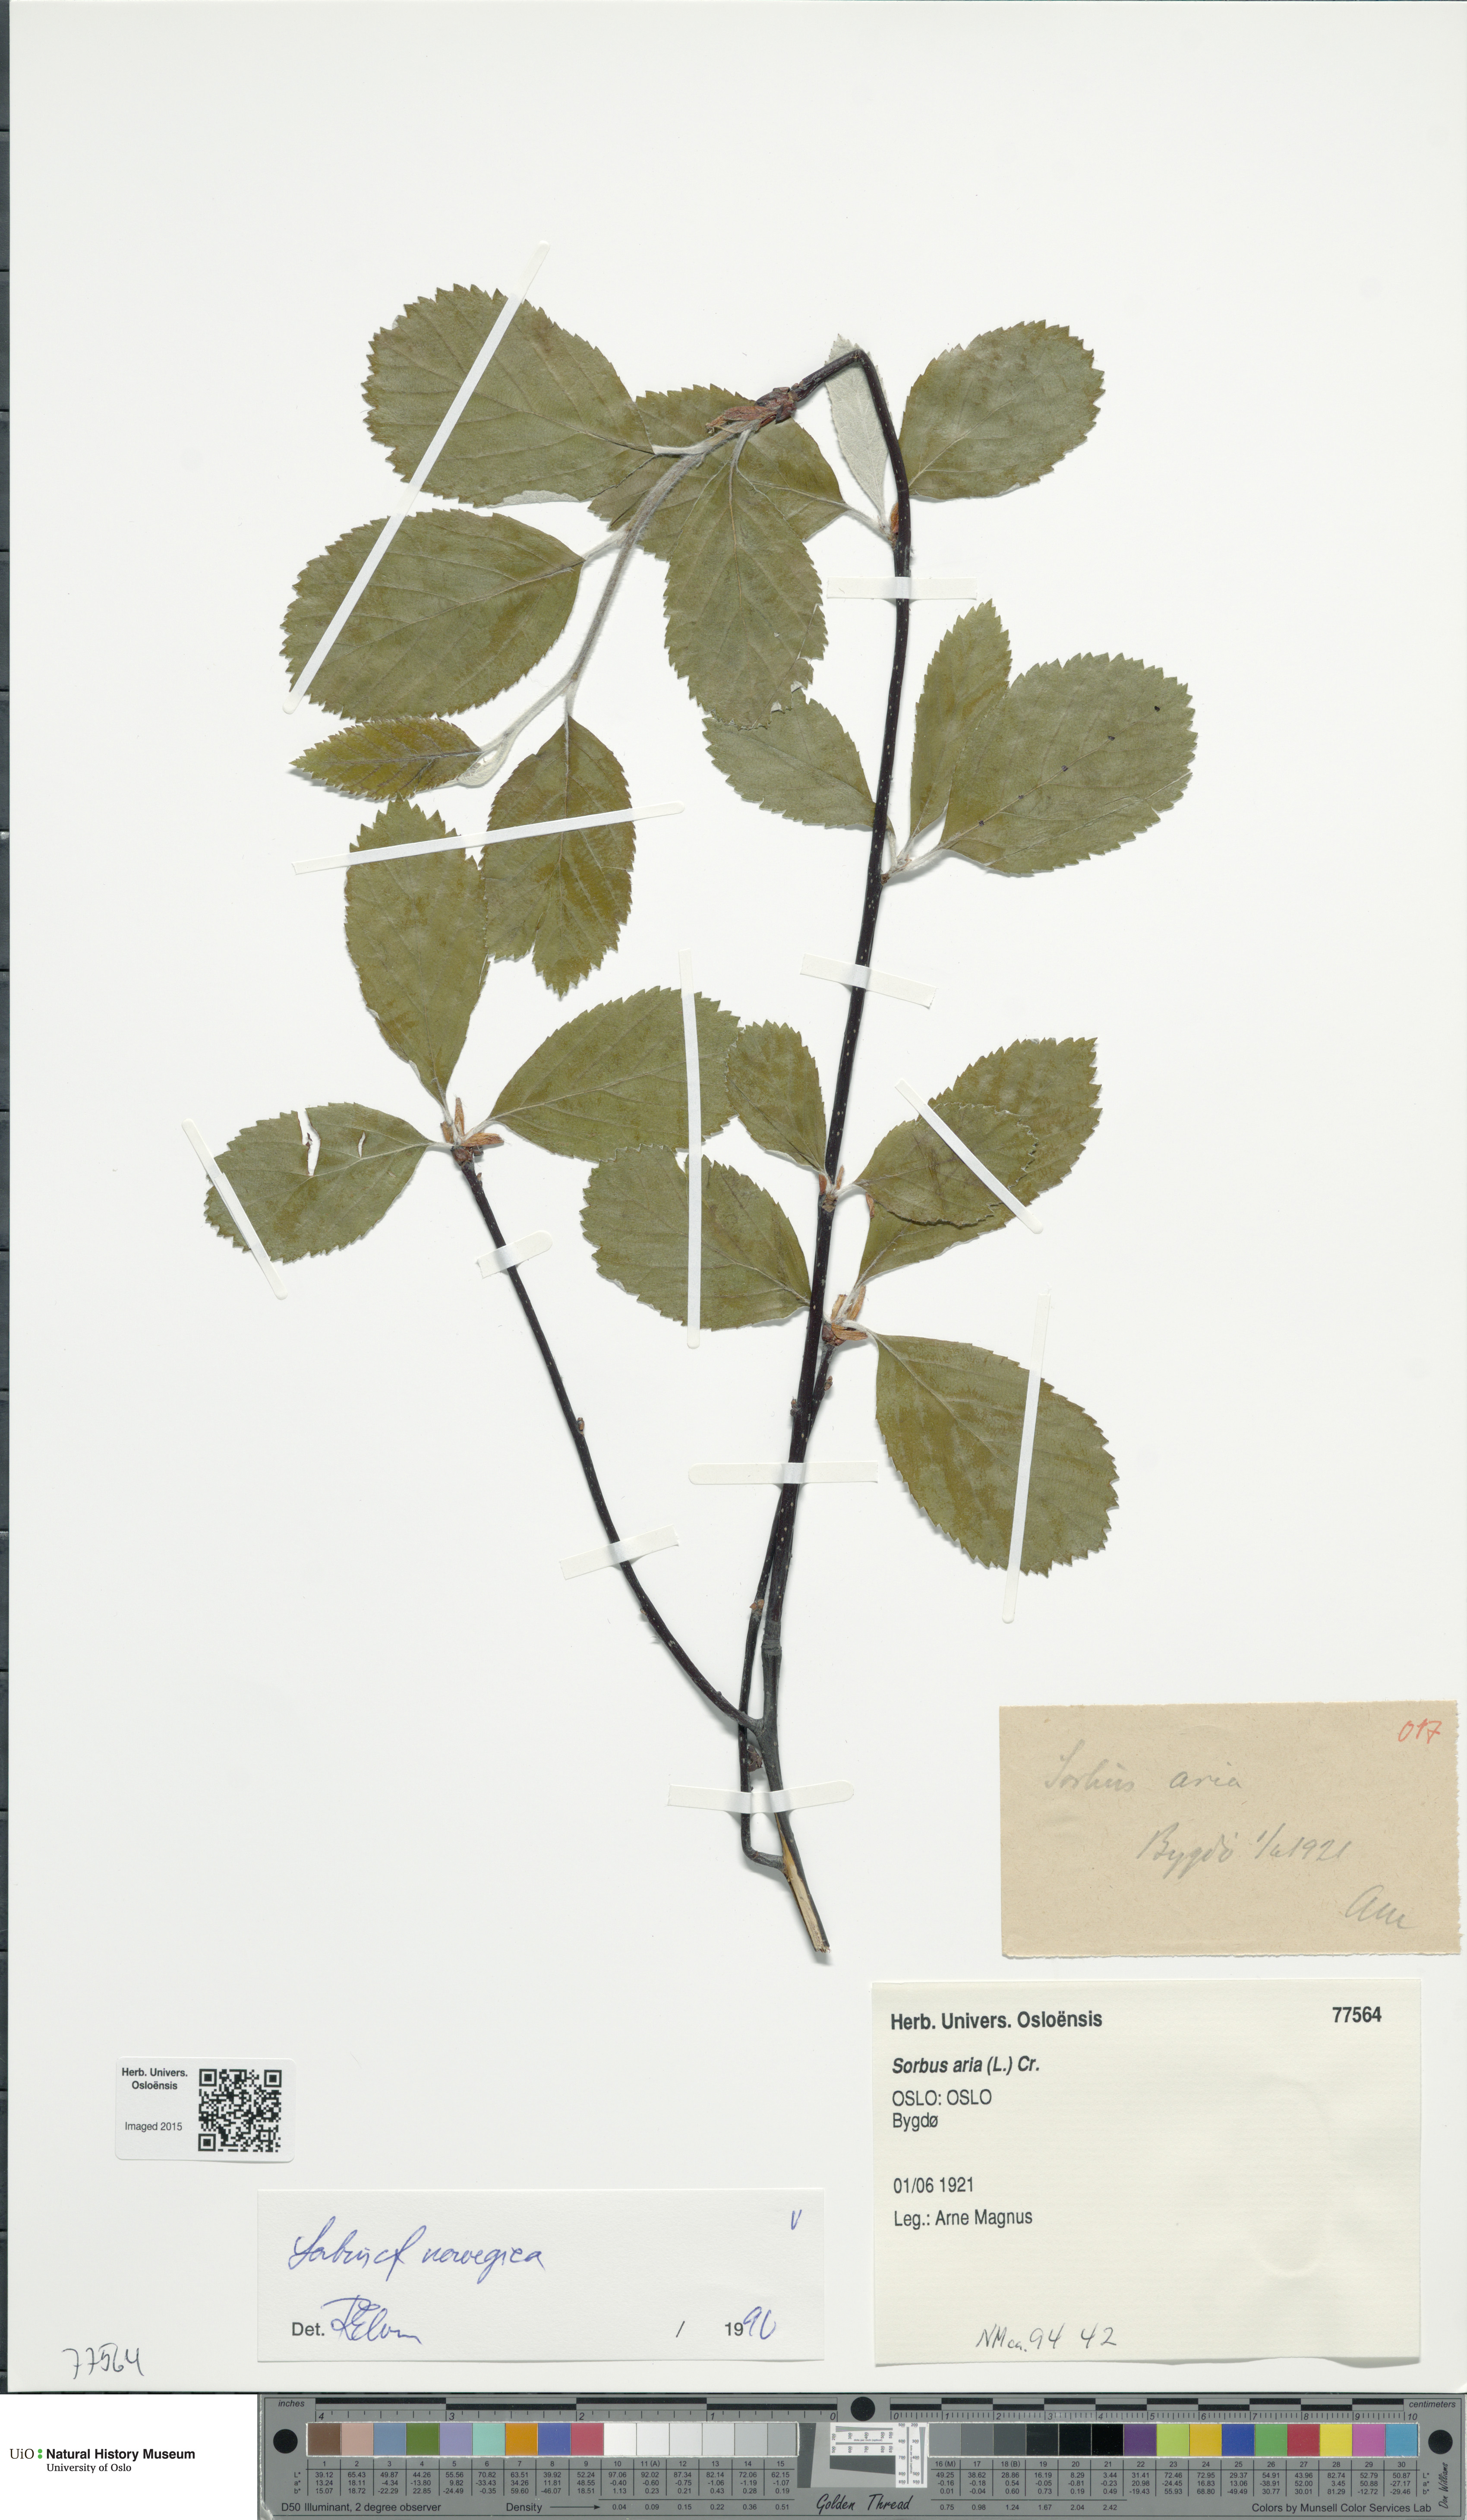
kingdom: Plantae
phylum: Tracheophyta
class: Magnoliopsida
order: Rosales
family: Rosaceae
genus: Aria
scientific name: Aria obtusifolia
